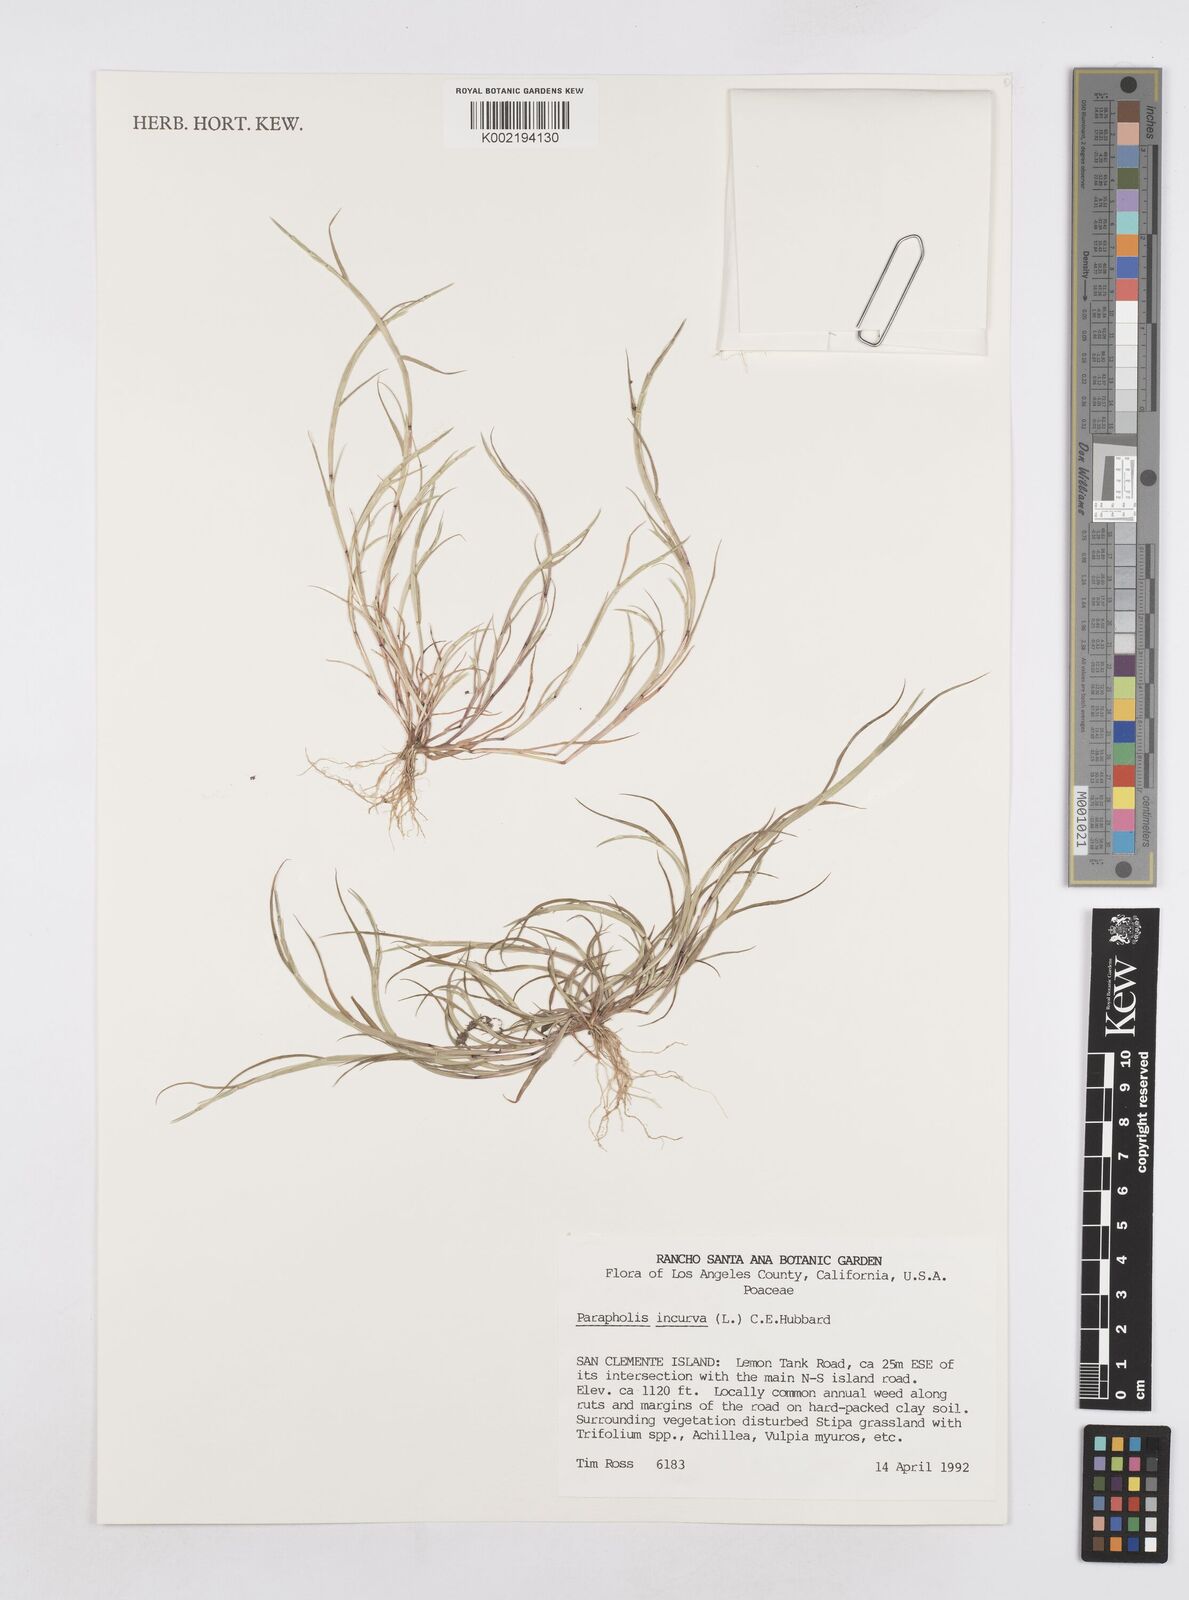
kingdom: Plantae
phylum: Tracheophyta
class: Liliopsida
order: Poales
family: Poaceae
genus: Parapholis
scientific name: Parapholis incurva
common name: Curved sicklegrass
